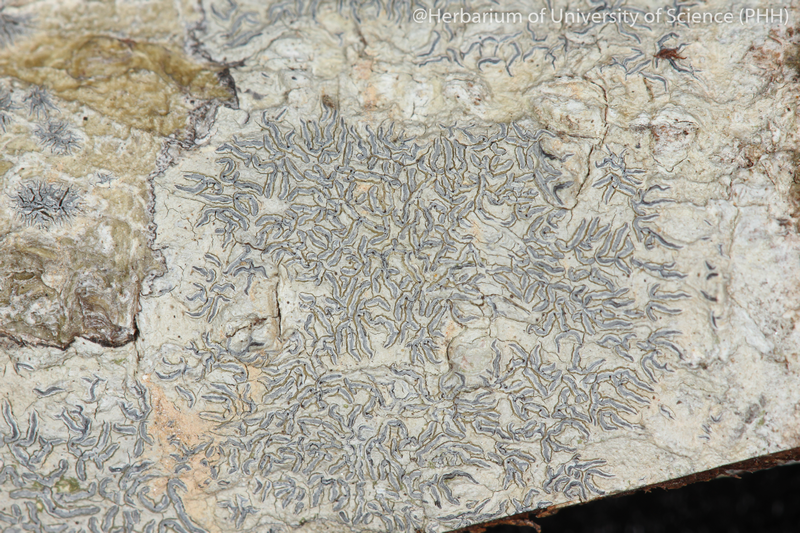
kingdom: Fungi
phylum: Ascomycota
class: Lecanoromycetes
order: Ostropales
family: Graphidaceae
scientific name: Graphidaceae
